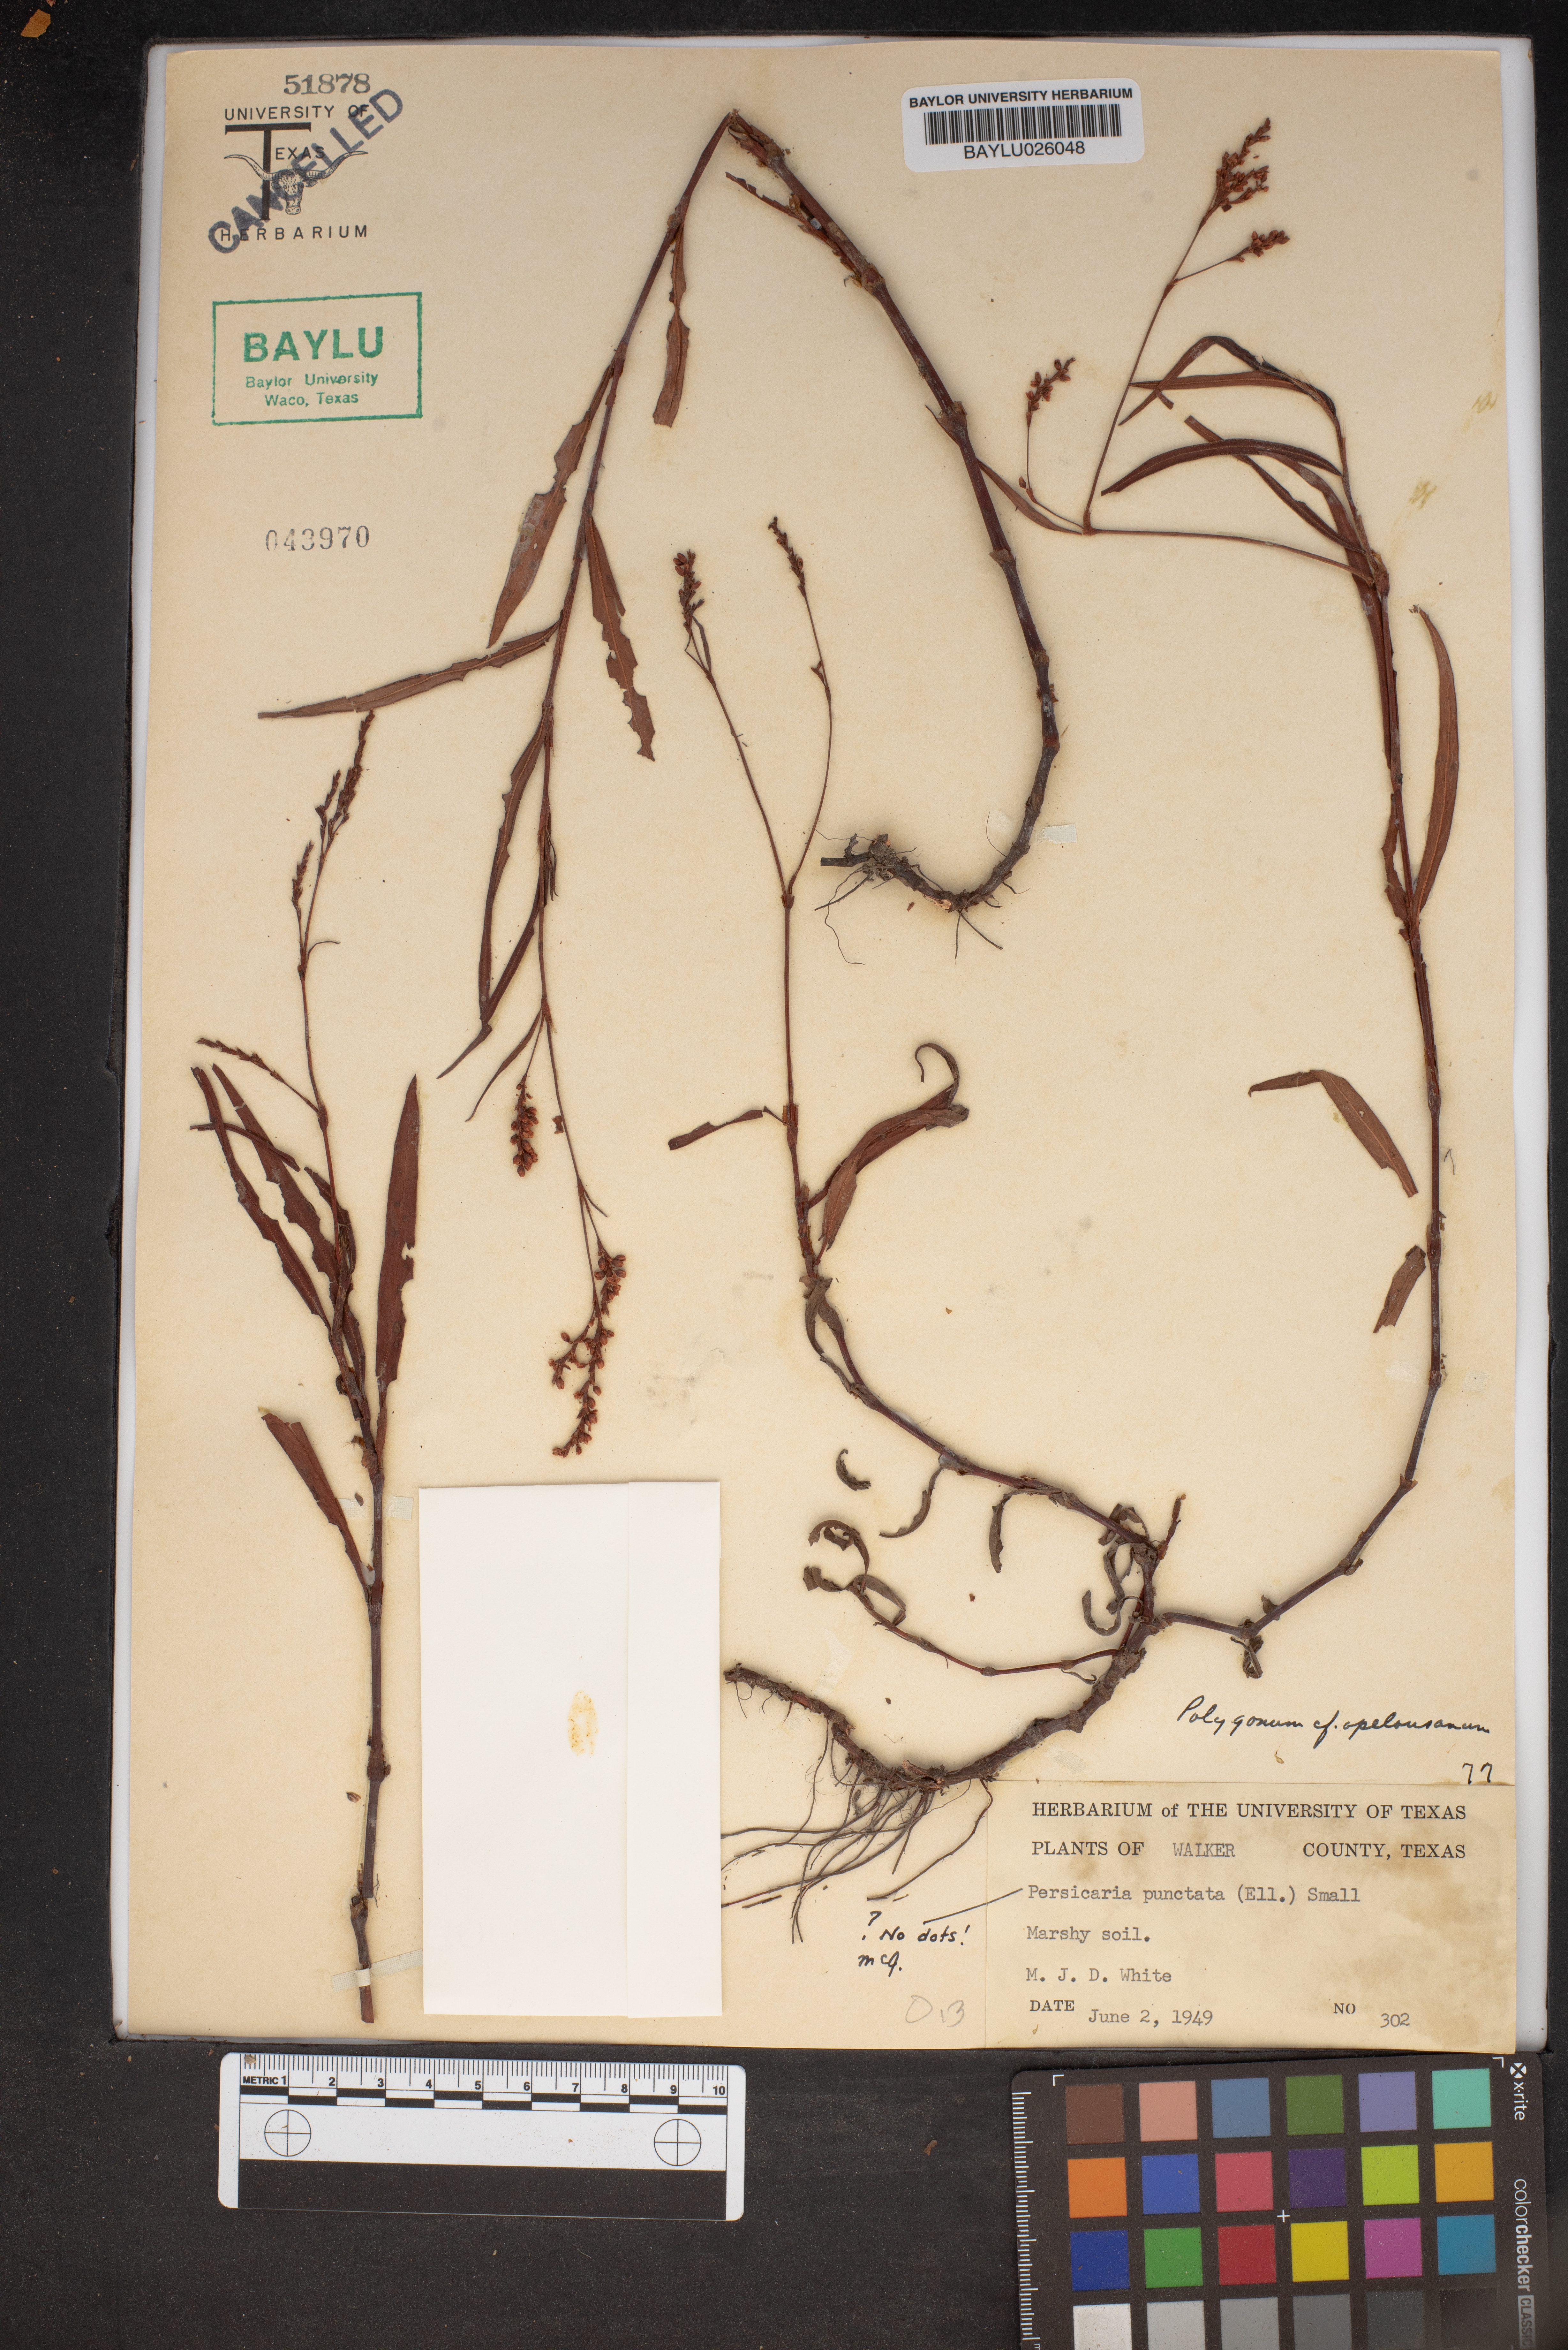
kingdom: Plantae
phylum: Tracheophyta
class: Magnoliopsida
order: Caryophyllales
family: Polygonaceae
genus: Persicaria
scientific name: Persicaria punctata
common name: Dotted smartweed
